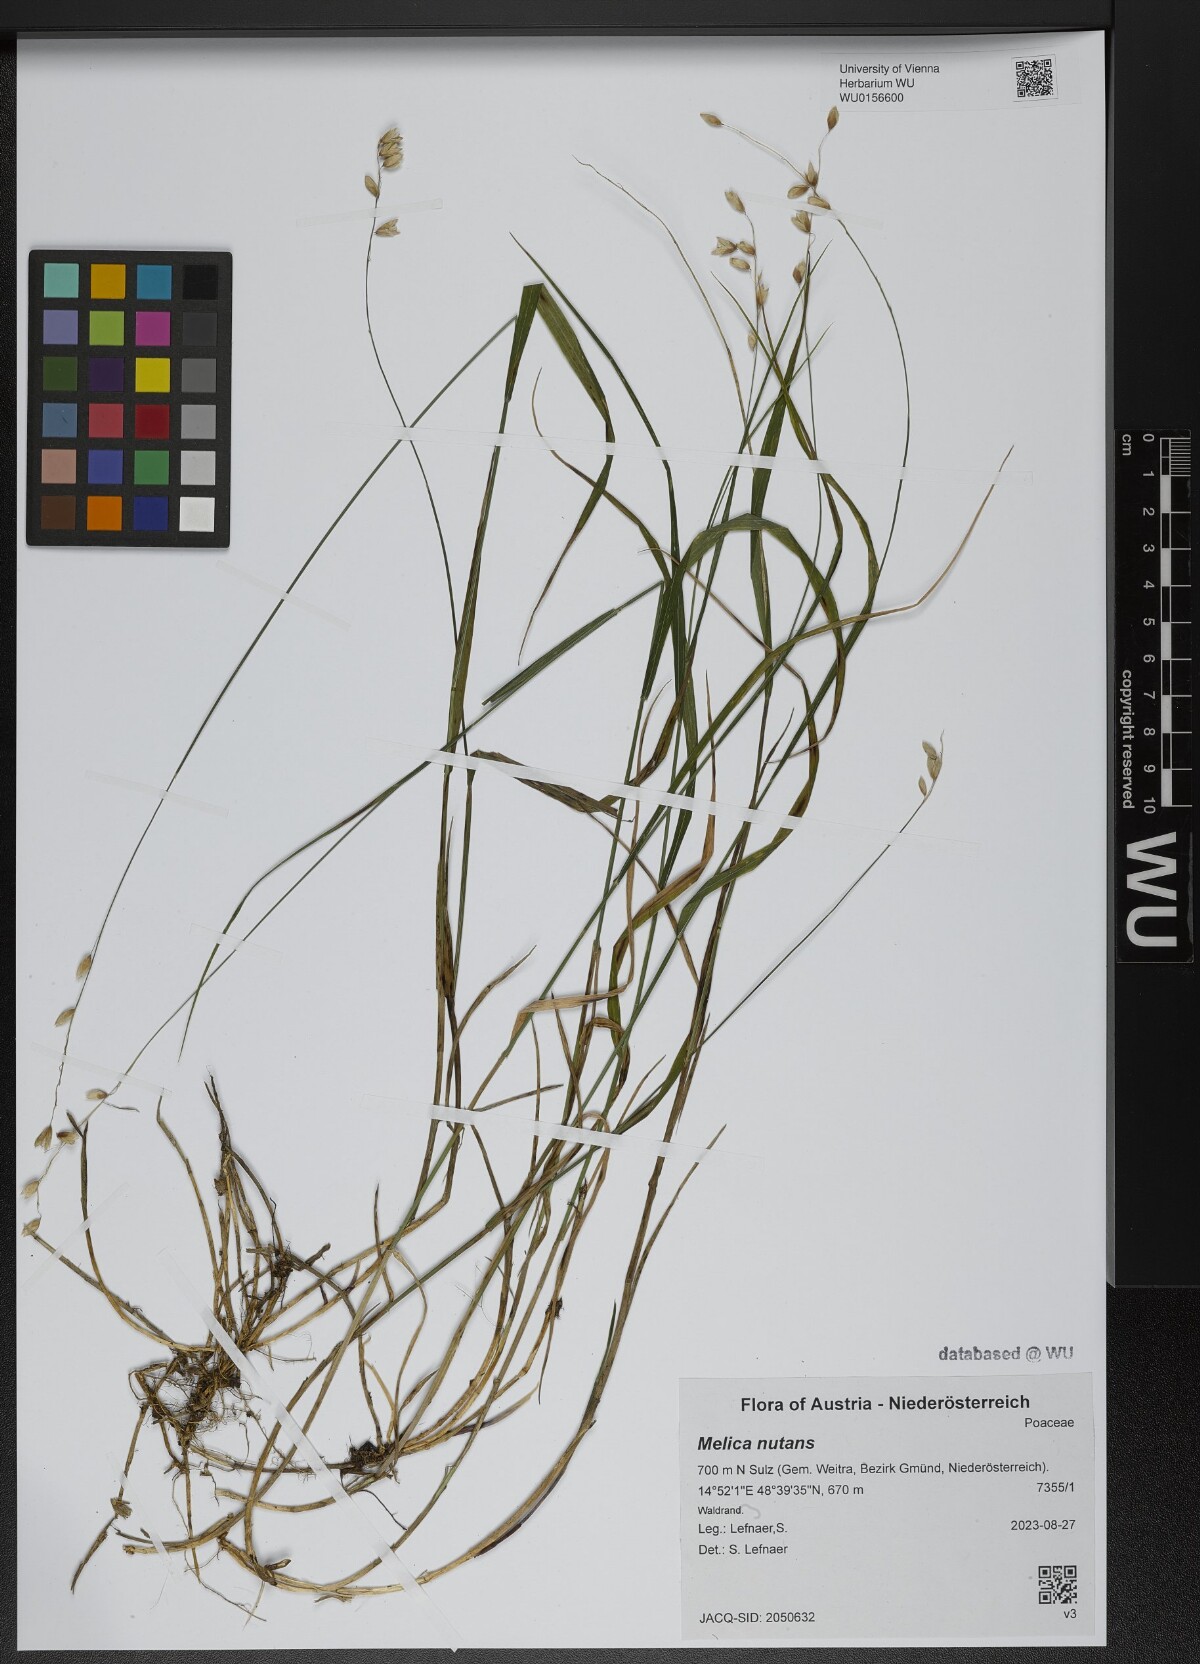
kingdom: Plantae
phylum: Tracheophyta
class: Liliopsida
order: Poales
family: Poaceae
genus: Melica
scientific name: Melica nutans
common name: Mountain melick
